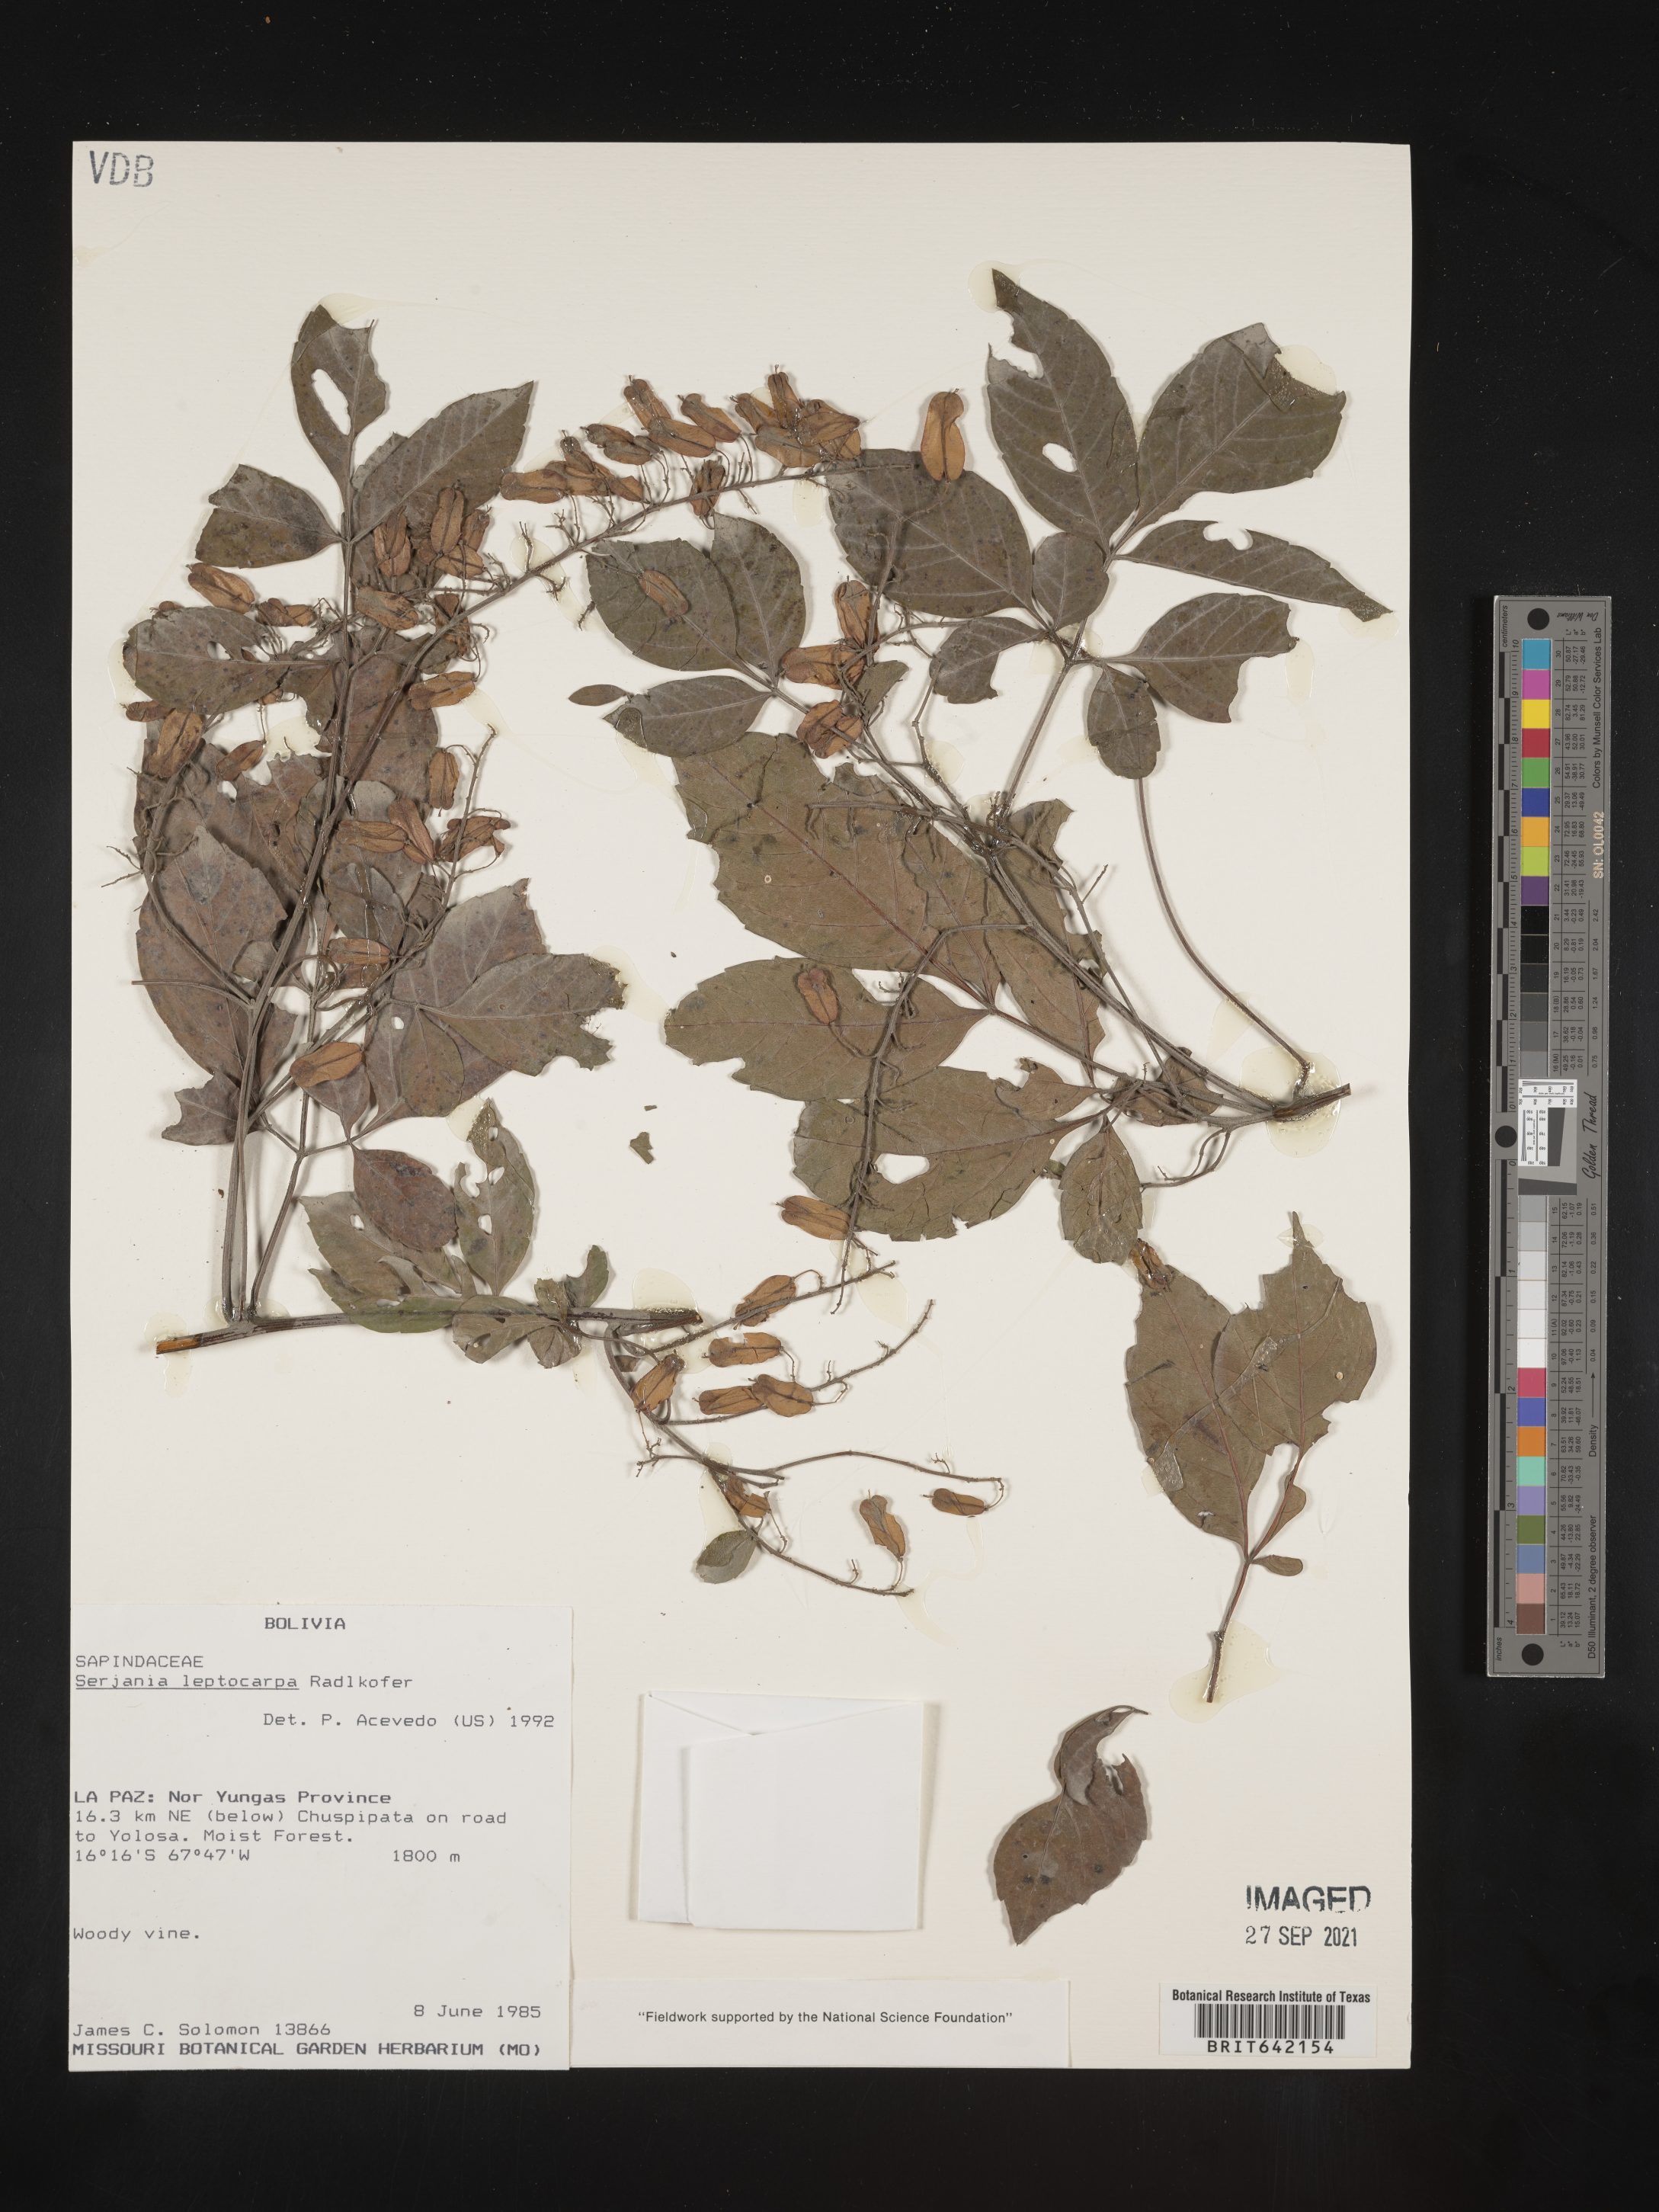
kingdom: Plantae
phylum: Tracheophyta
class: Magnoliopsida
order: Sapindales
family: Sapindaceae
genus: Serjania
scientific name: Serjania
